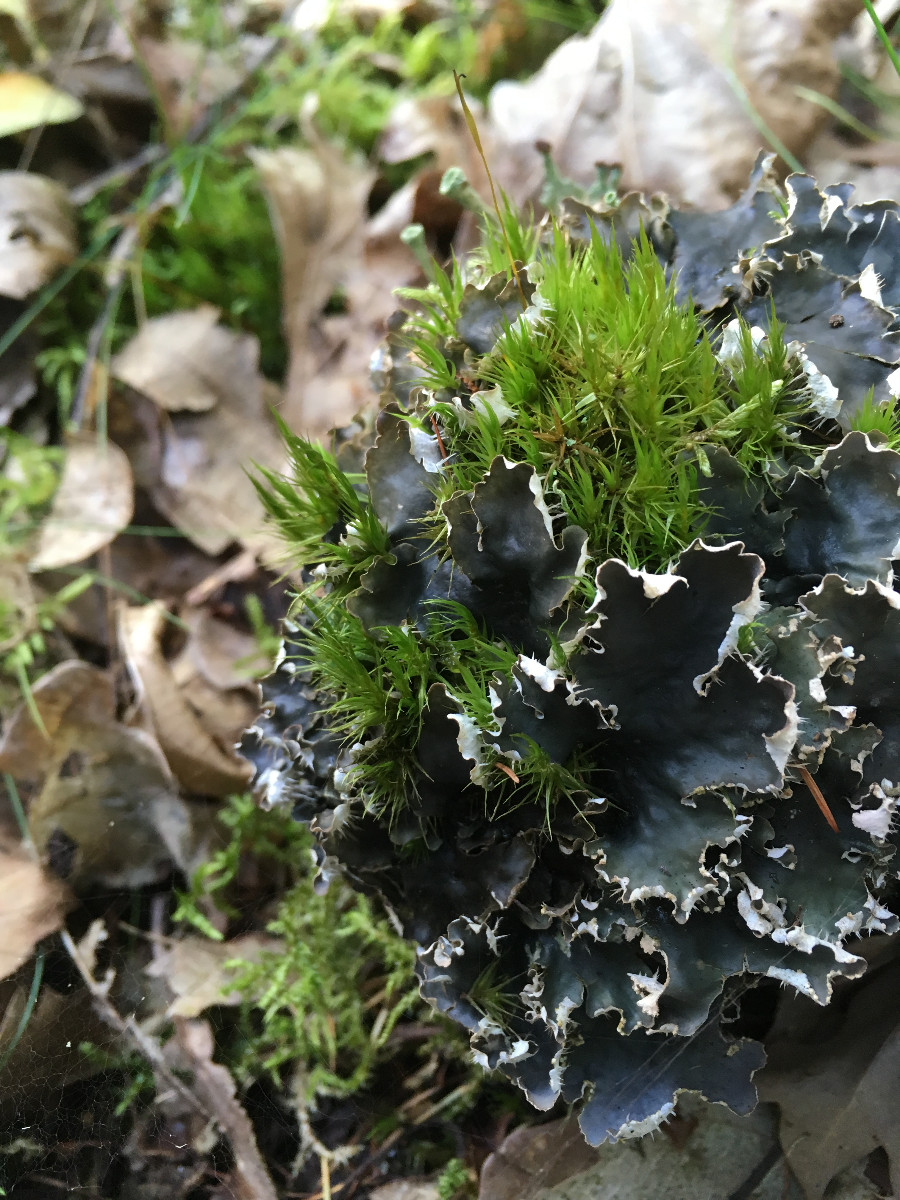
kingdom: Fungi
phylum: Ascomycota
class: Lecanoromycetes
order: Peltigerales
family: Peltigeraceae
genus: Peltigera
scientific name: Peltigera hymenina
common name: hinde-skjoldlav
